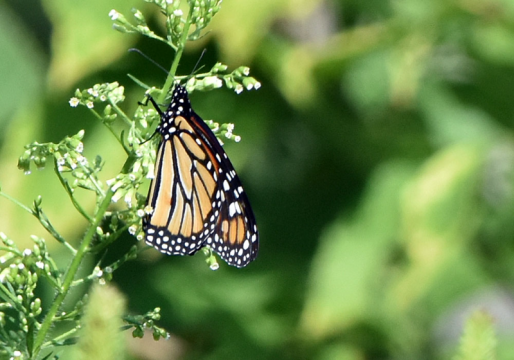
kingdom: Animalia
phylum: Arthropoda
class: Insecta
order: Lepidoptera
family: Nymphalidae
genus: Danaus
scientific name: Danaus plexippus
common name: Monarch
